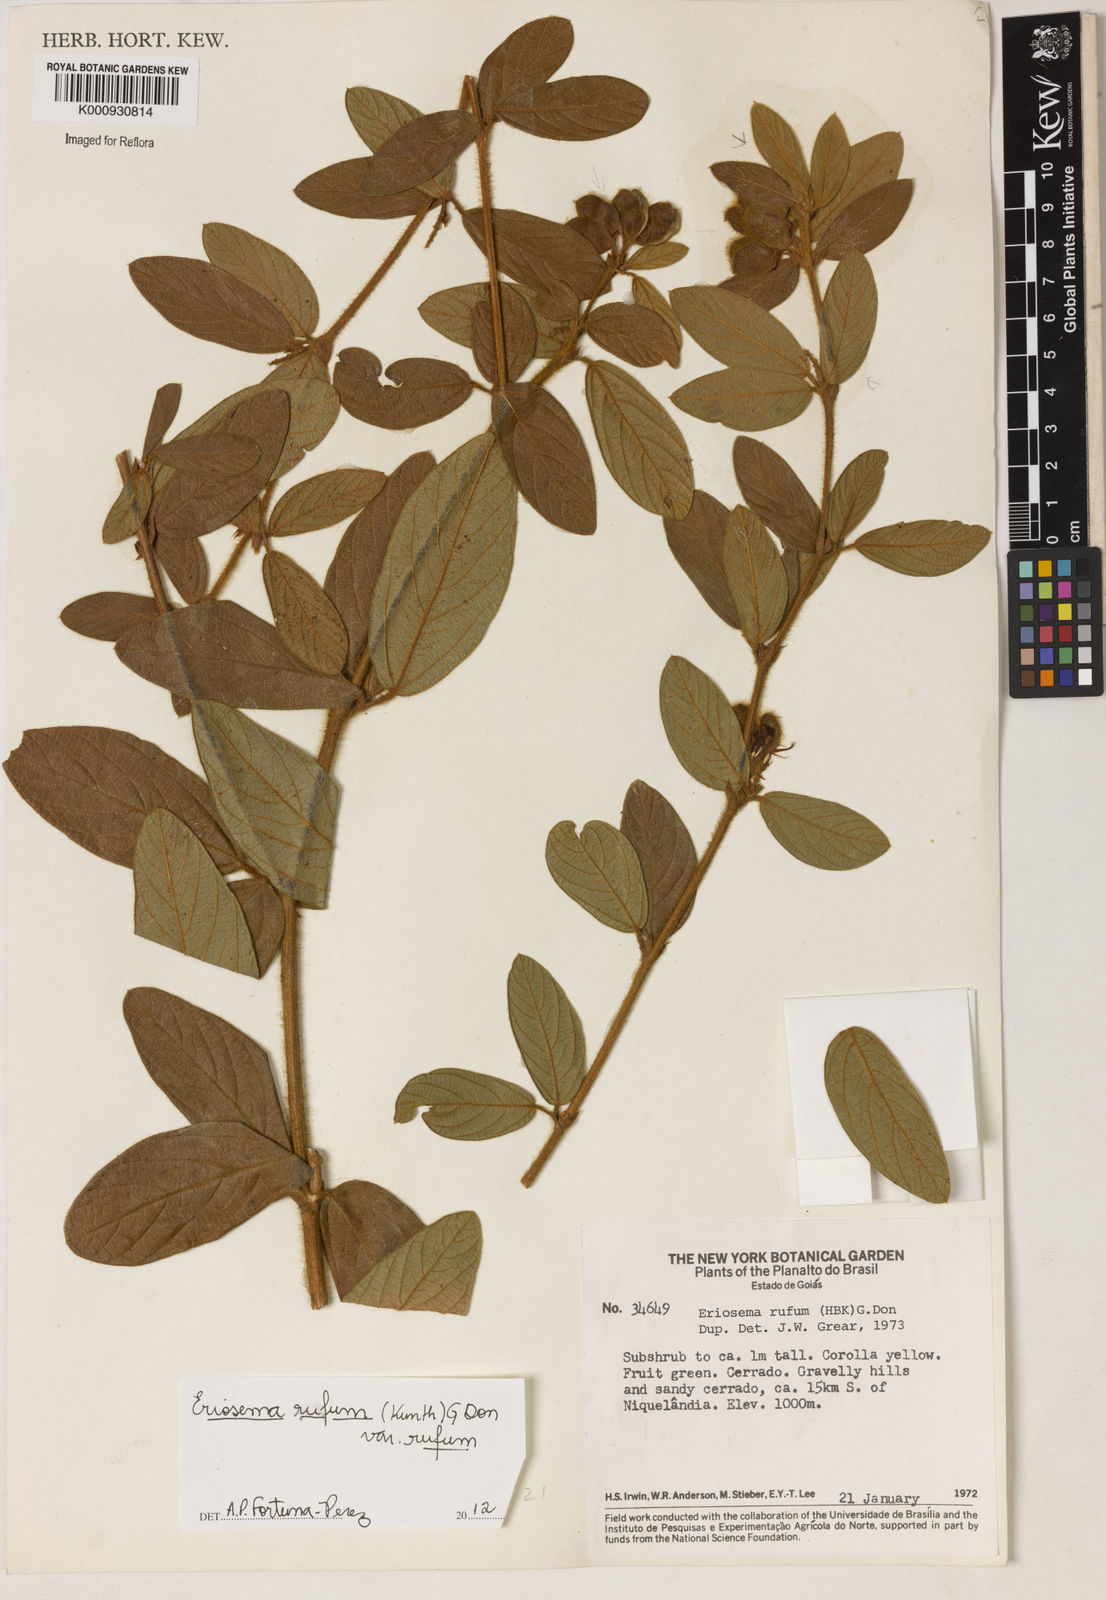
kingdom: Plantae
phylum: Tracheophyta
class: Magnoliopsida
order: Fabales
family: Fabaceae
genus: Eriosema
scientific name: Eriosema rufum
